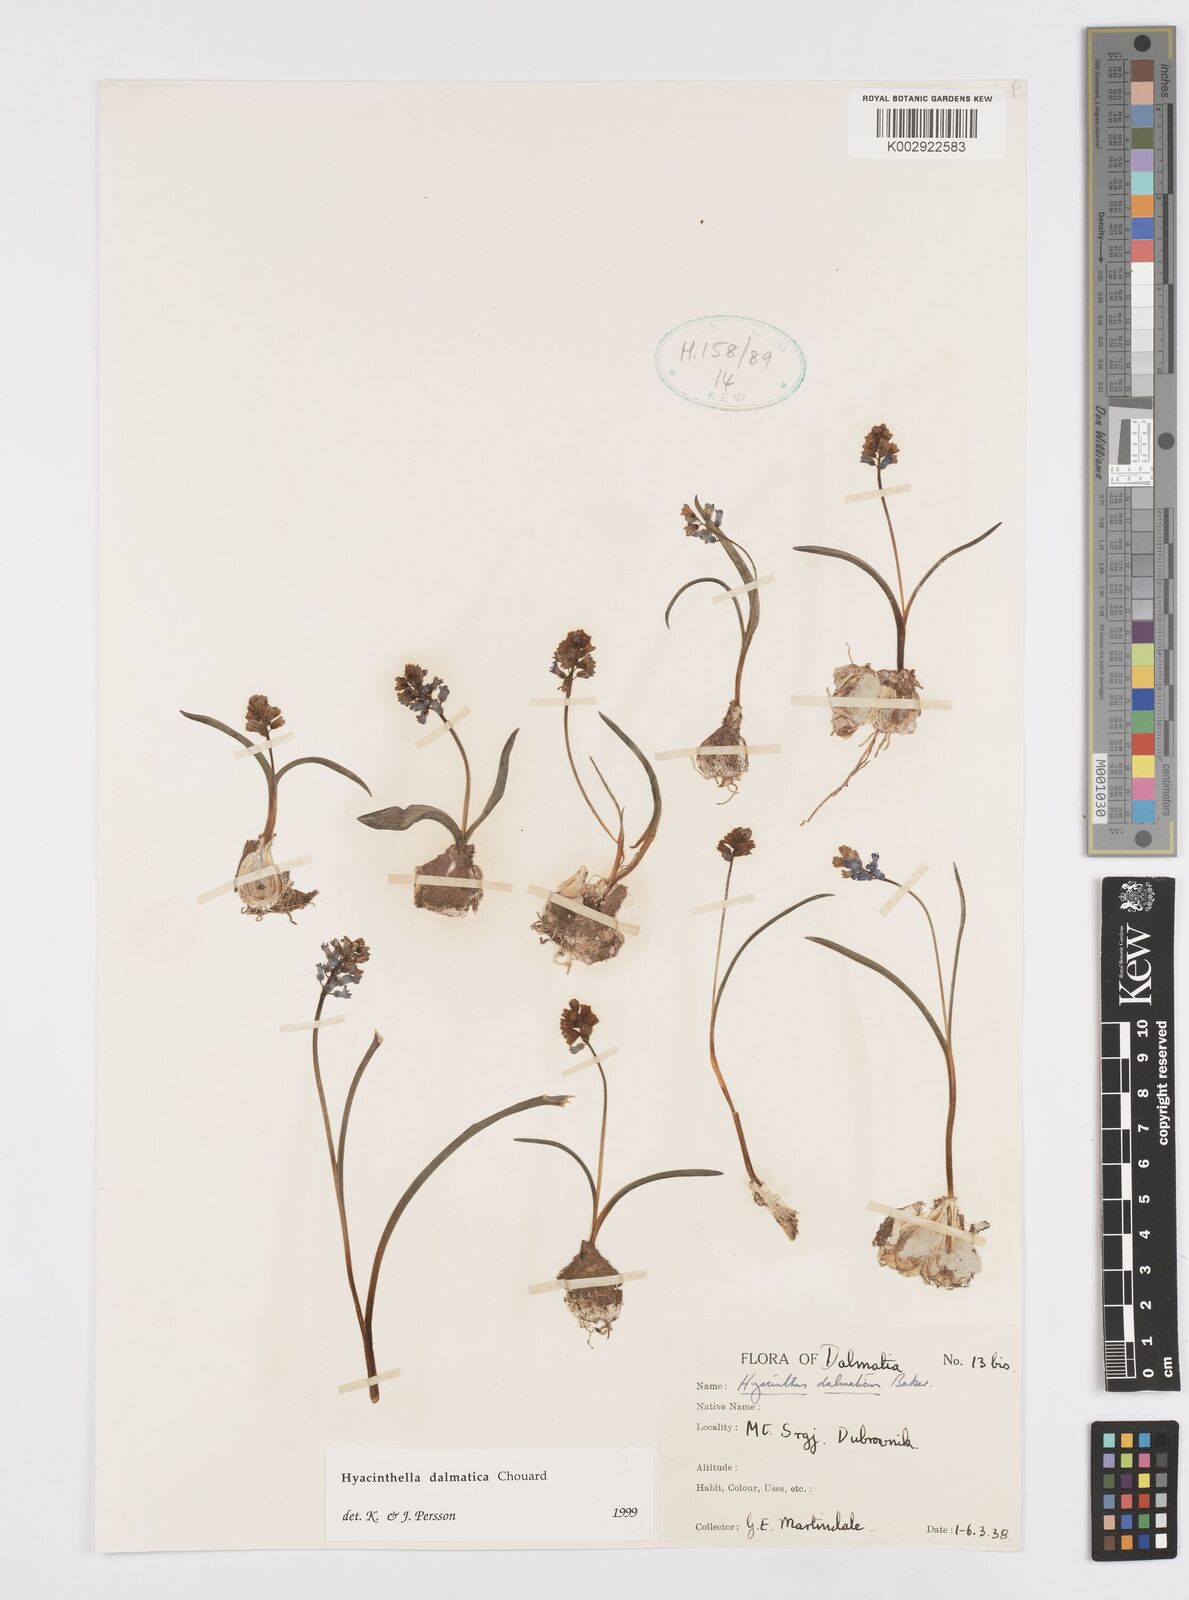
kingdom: Plantae
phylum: Tracheophyta
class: Liliopsida
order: Asparagales
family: Asparagaceae
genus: Hyacinthella
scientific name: Hyacinthella leucophaea
